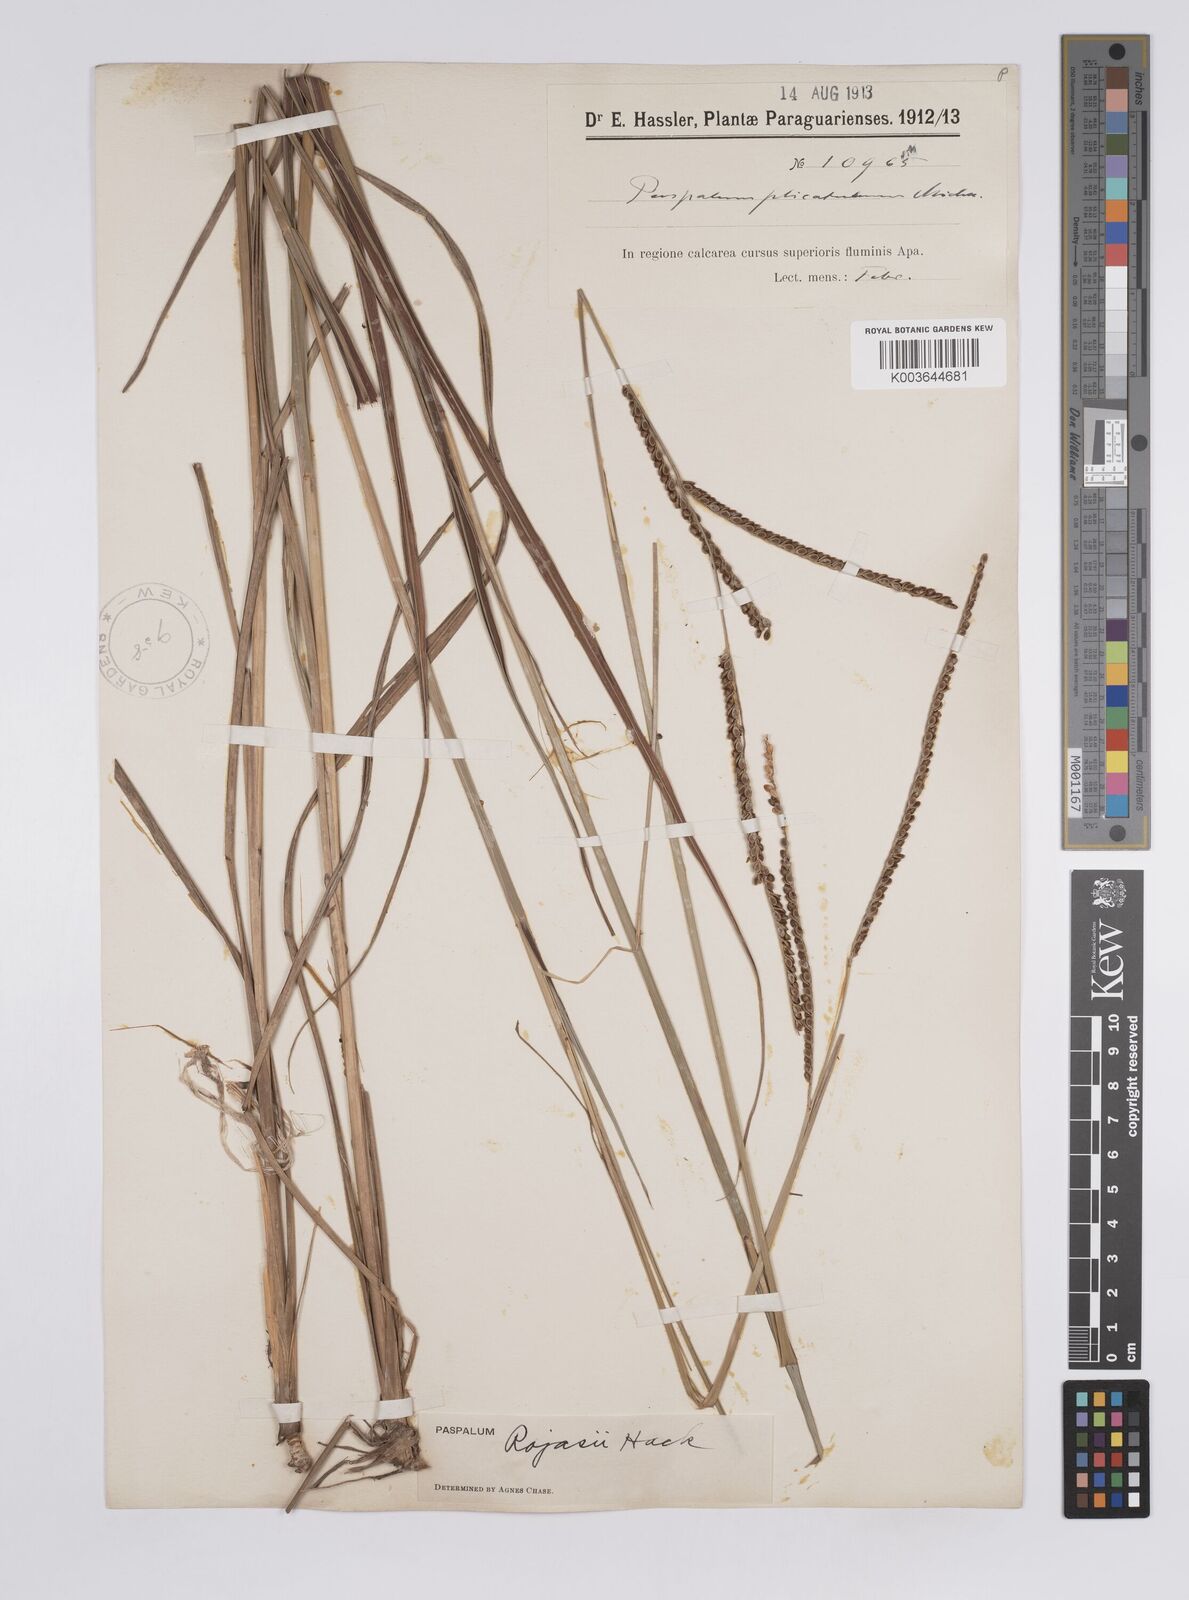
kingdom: Plantae
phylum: Tracheophyta
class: Liliopsida
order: Poales
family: Poaceae
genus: Paspalum
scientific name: Paspalum guenoarum
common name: Wintergreen paspalum
